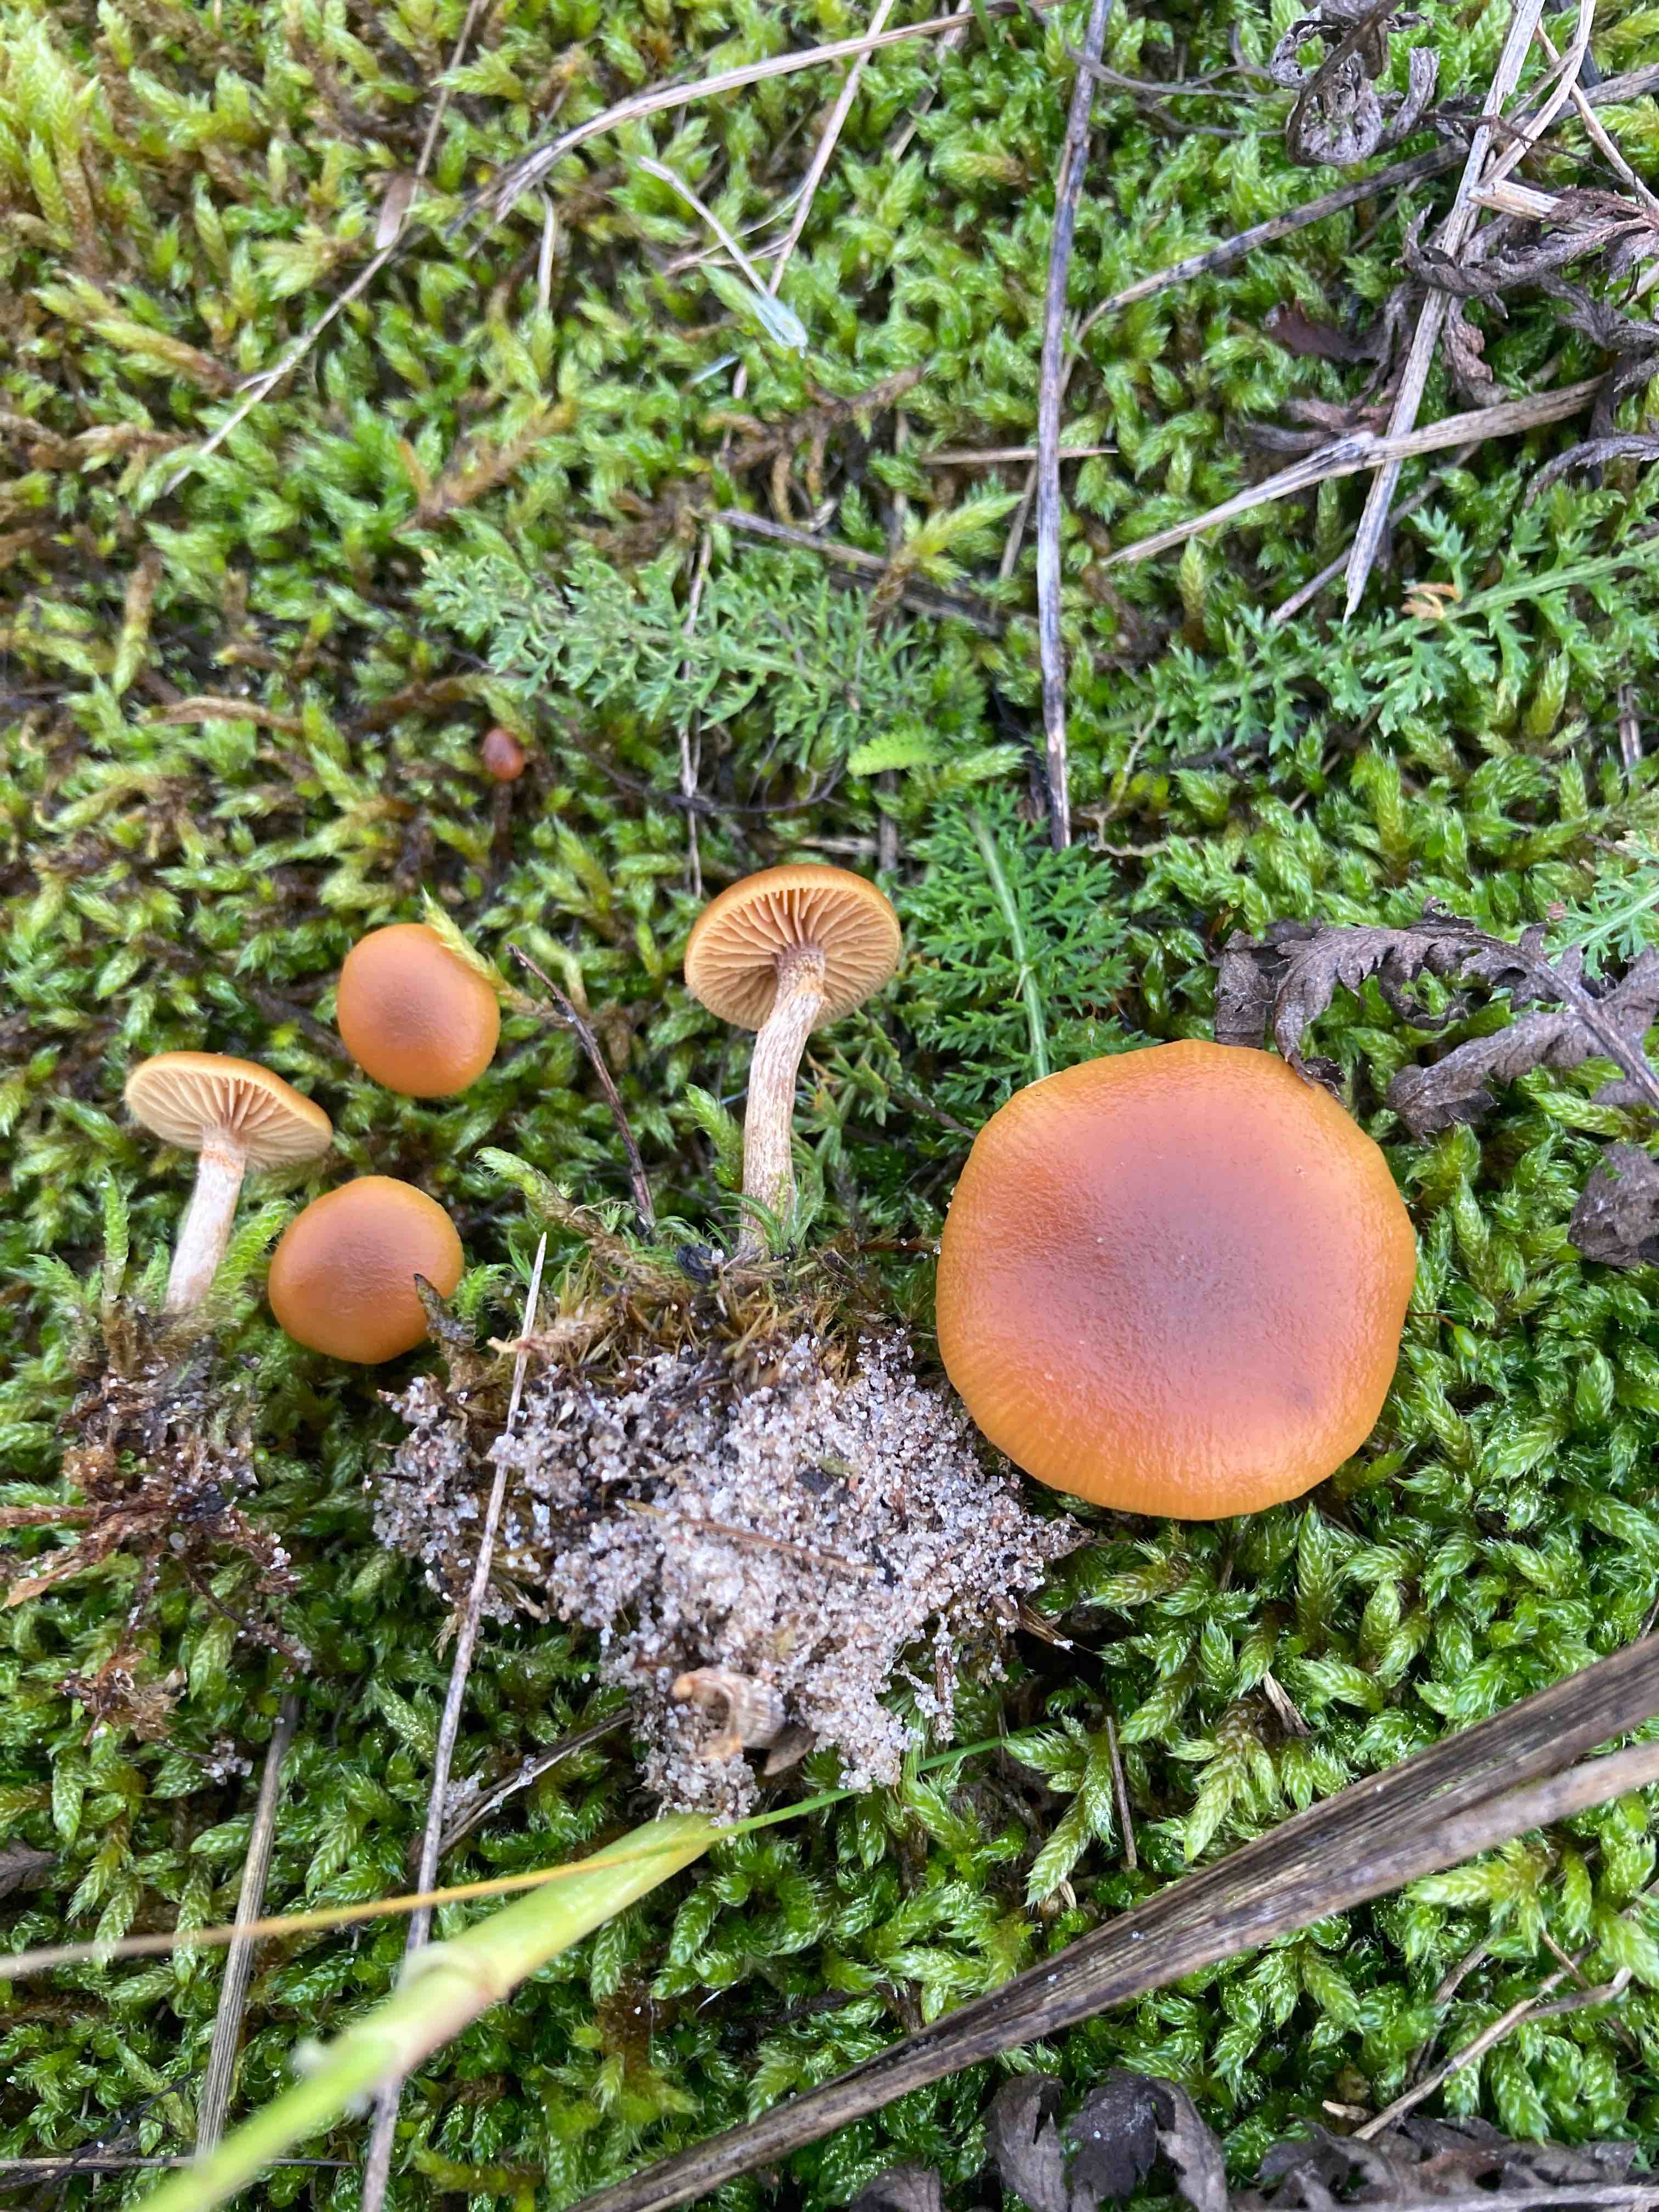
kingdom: Fungi
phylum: Basidiomycota
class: Agaricomycetes
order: Agaricales
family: Hymenogastraceae
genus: Galerina
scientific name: Galerina esteve-raventosii
